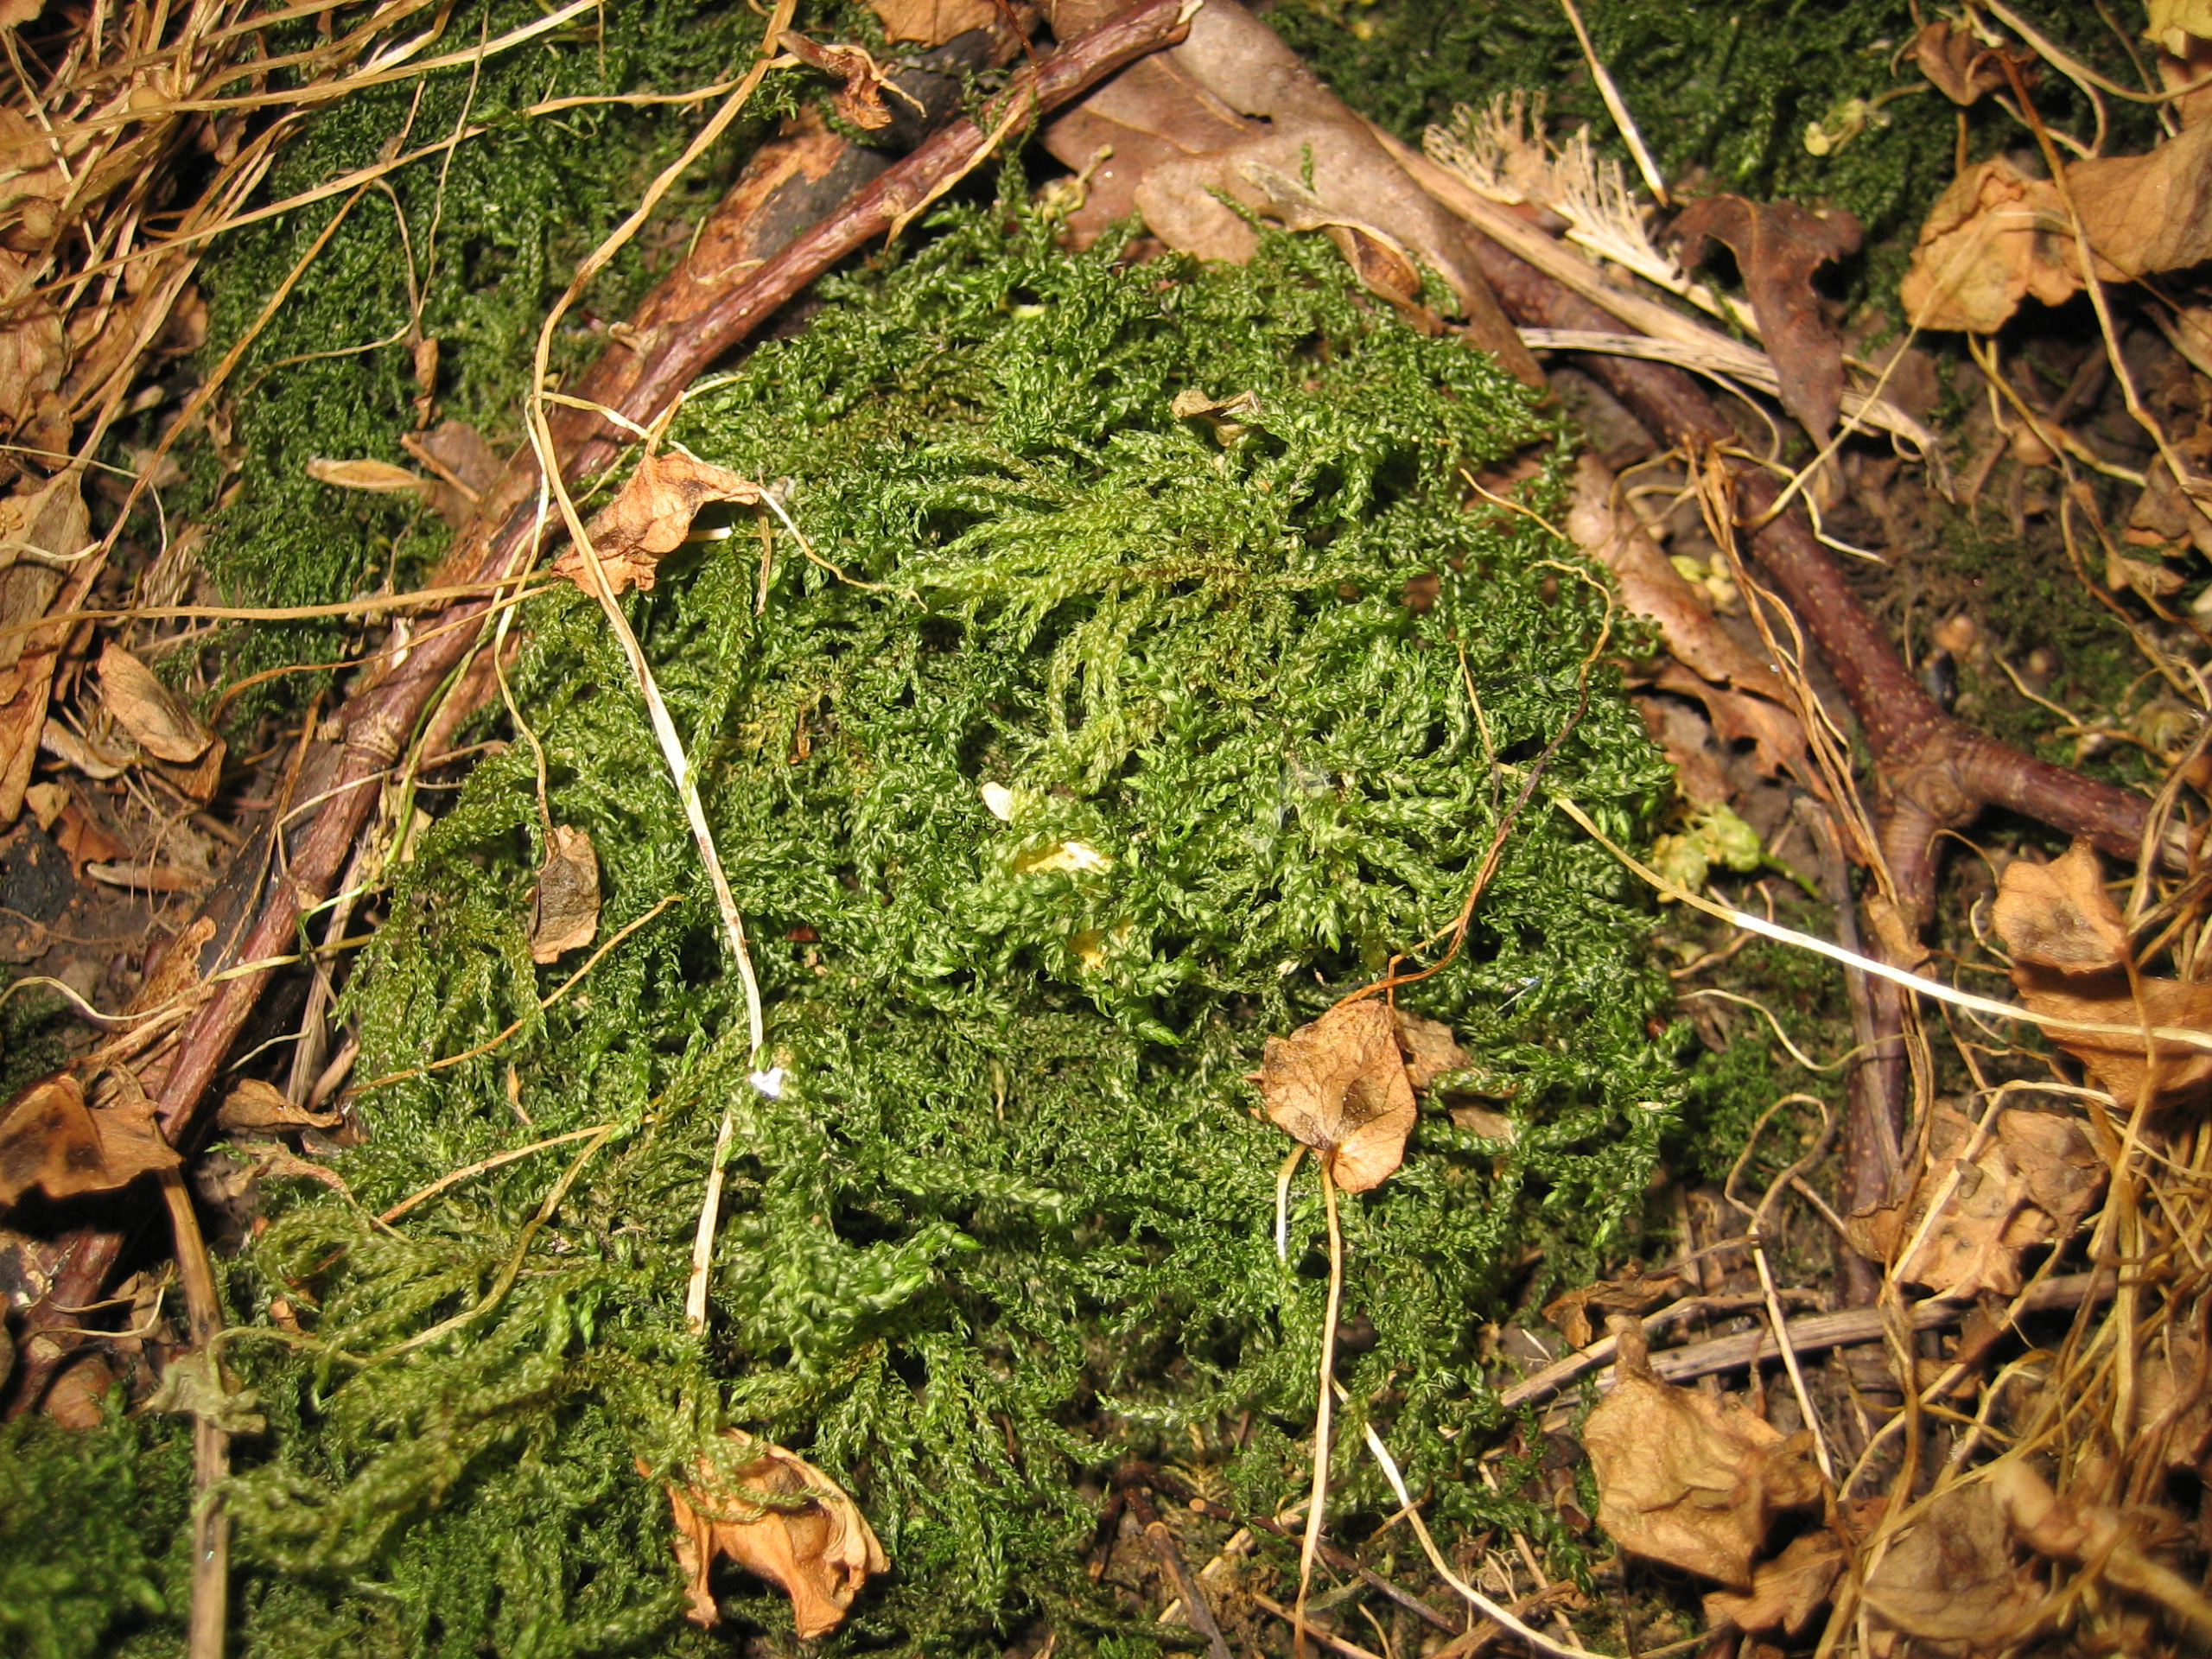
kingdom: Plantae
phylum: Bryophyta
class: Bryopsida
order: Hypnales
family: Neckeraceae
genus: Thamnobryum
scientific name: Thamnobryum alopecurum
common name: Mat bækkost
